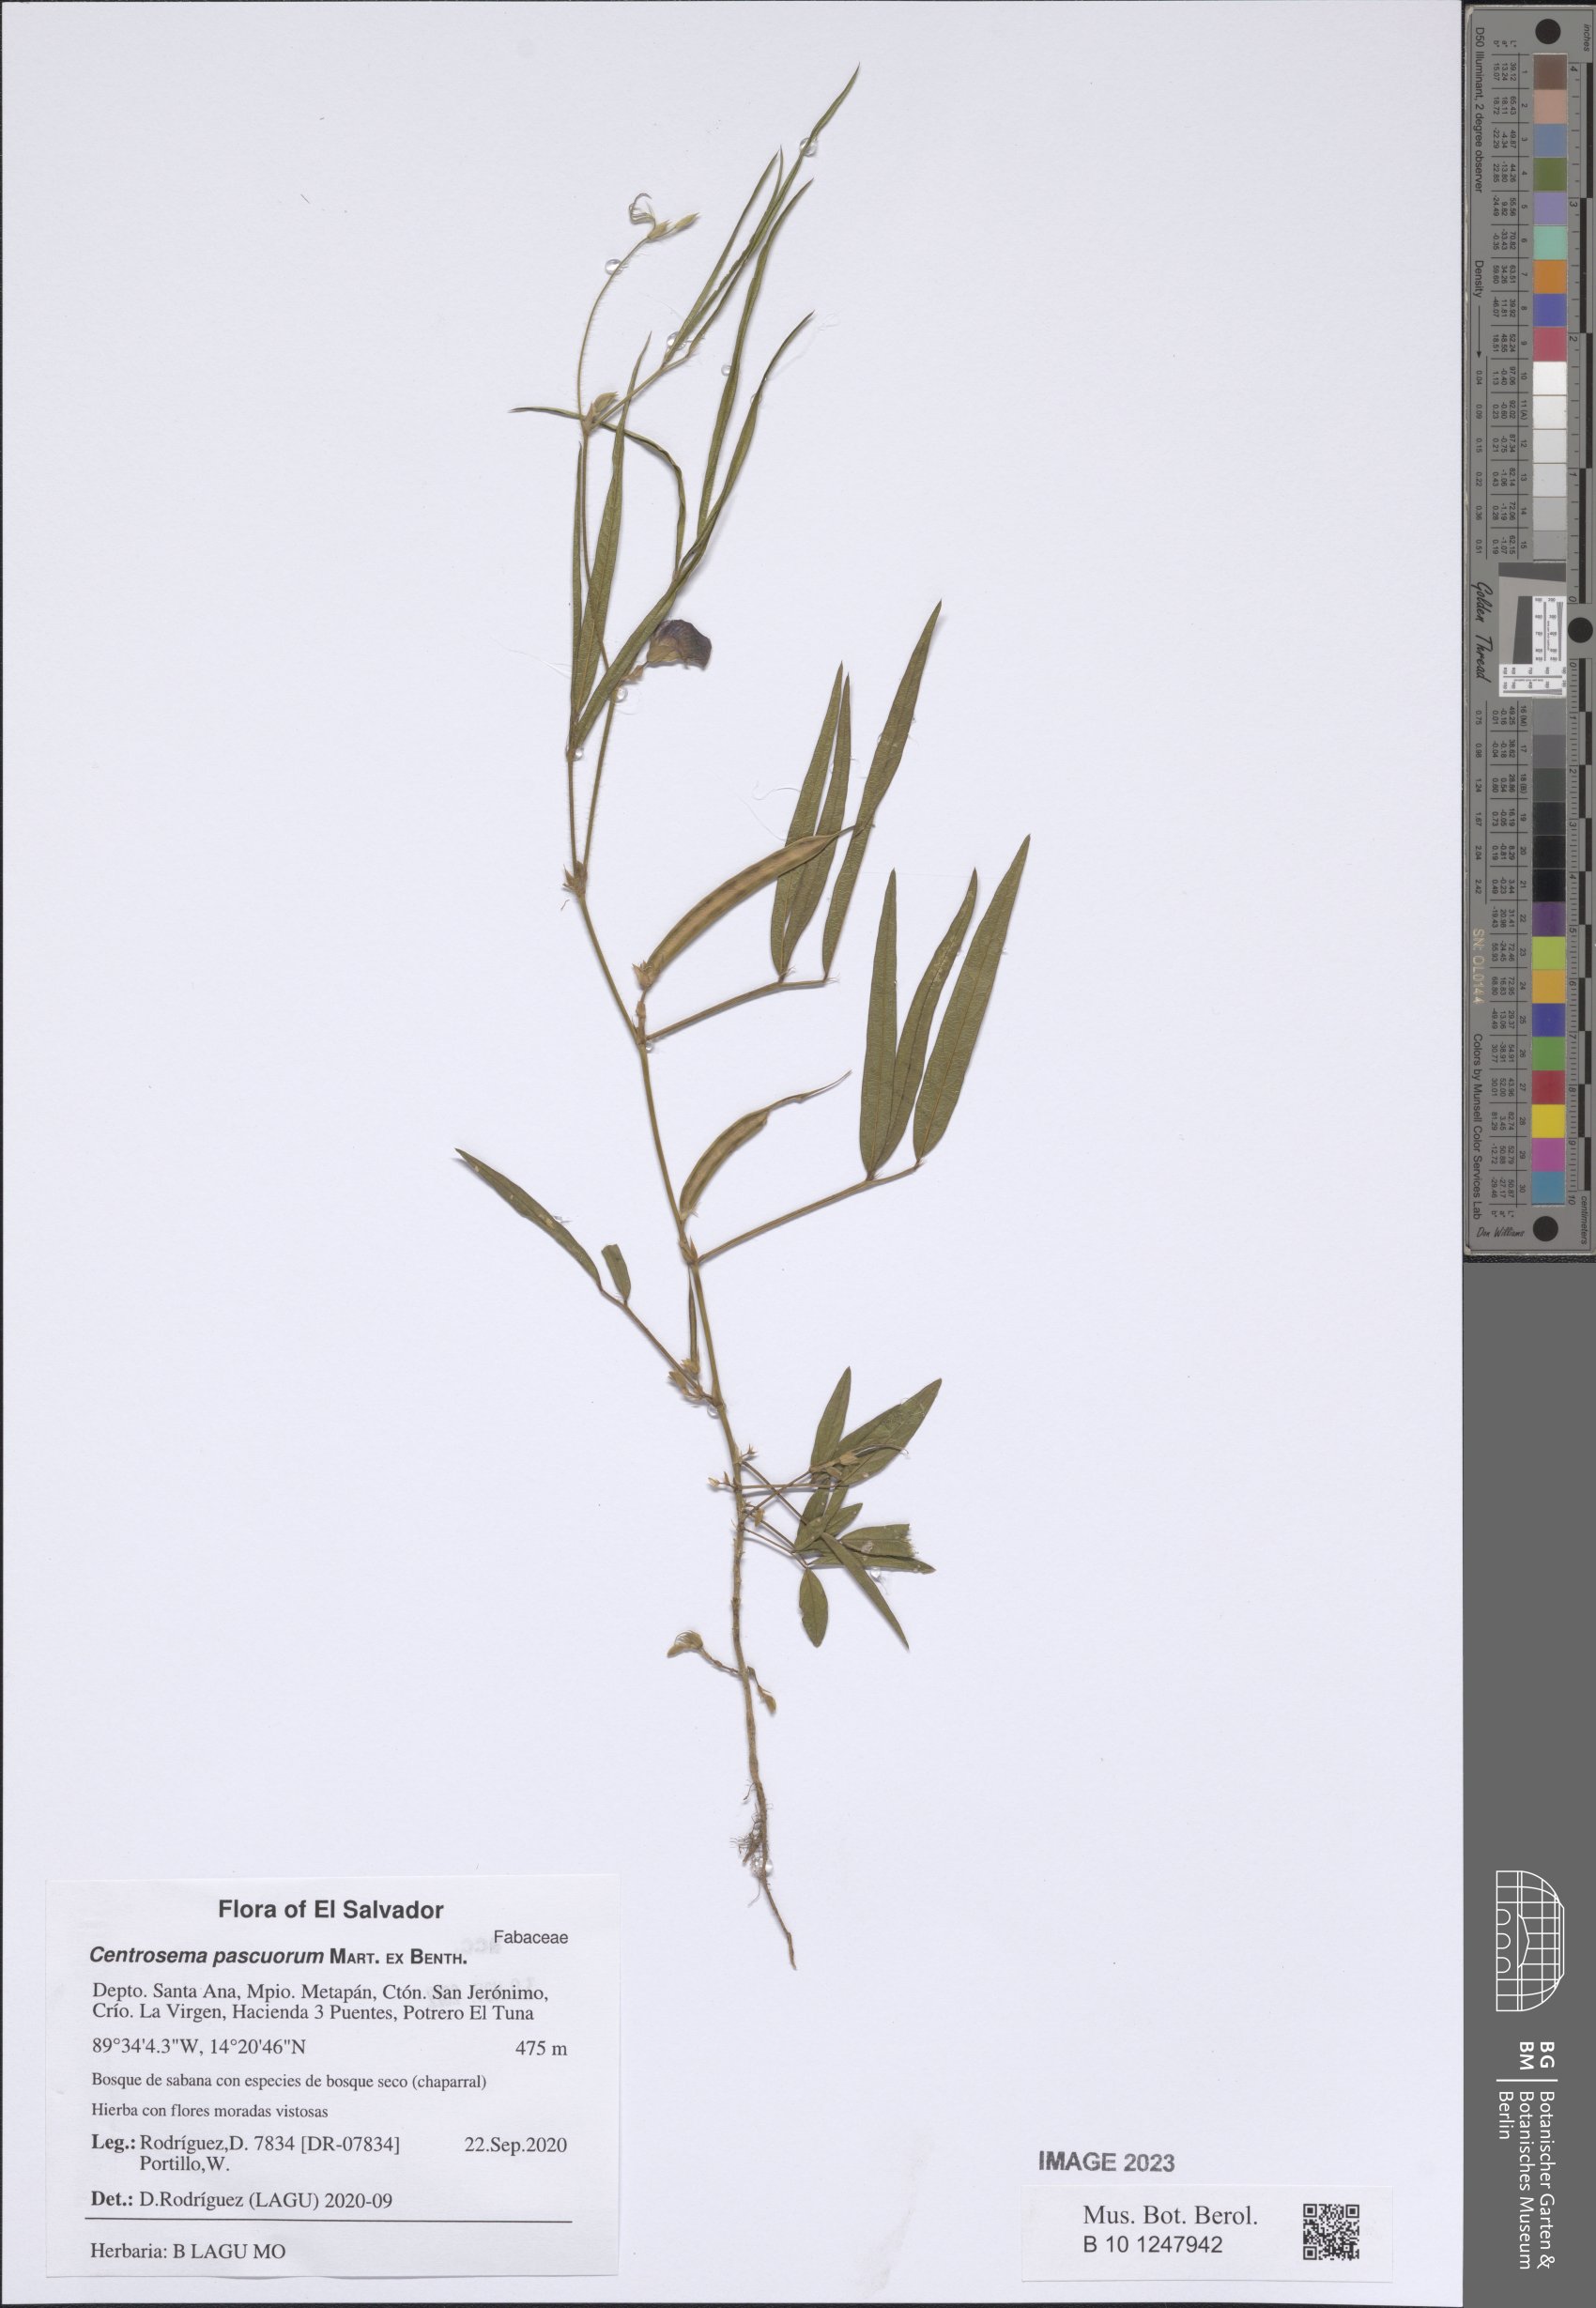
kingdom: Plantae
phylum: Tracheophyta
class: Magnoliopsida
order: Fabales
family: Fabaceae
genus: Centrosema
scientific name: Centrosema pascuorum
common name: Centurion
